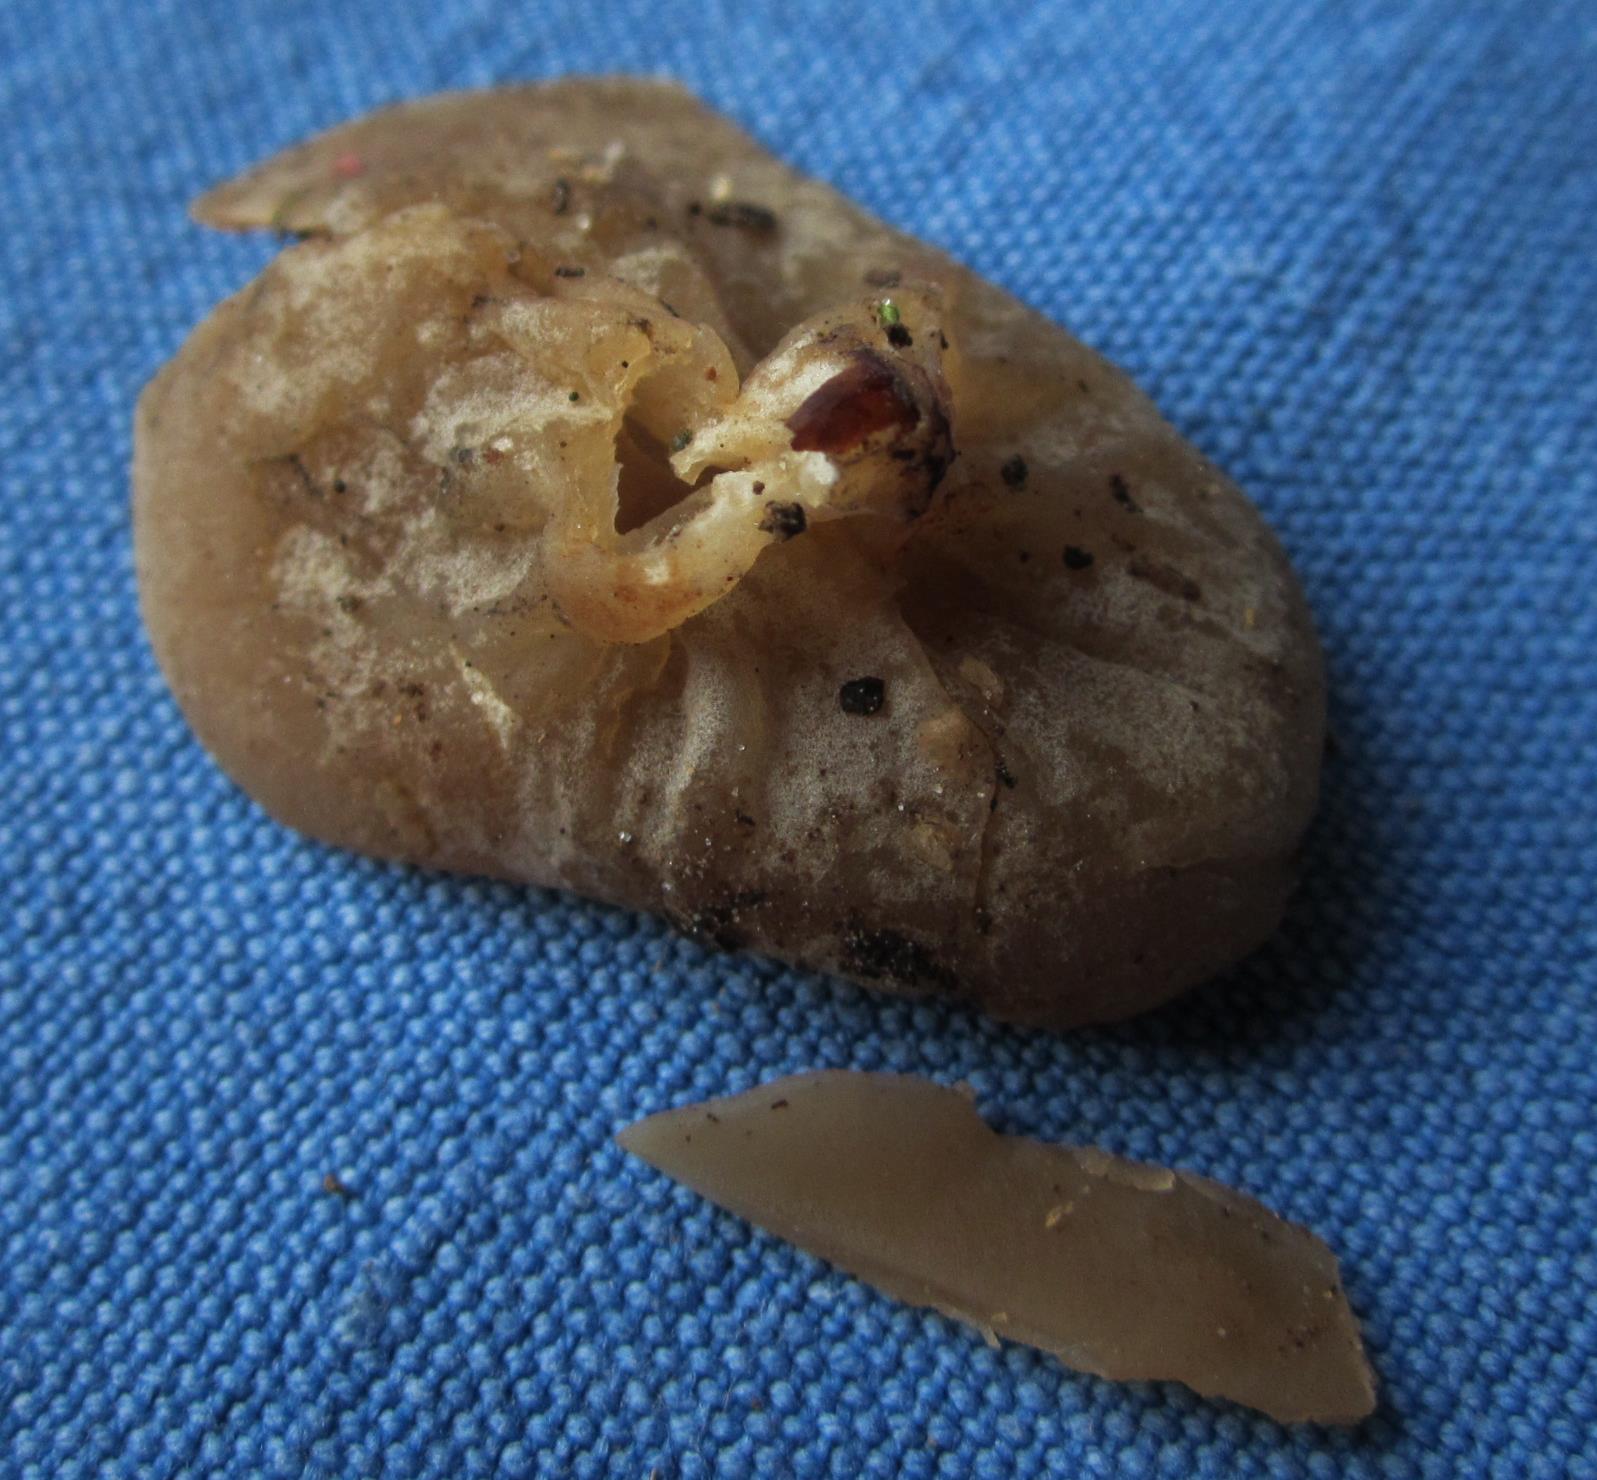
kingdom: Fungi
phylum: Ascomycota
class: Pezizomycetes
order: Pezizales
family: Pezizaceae
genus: Peziza
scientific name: Peziza varia
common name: Ved-bægersvamp
